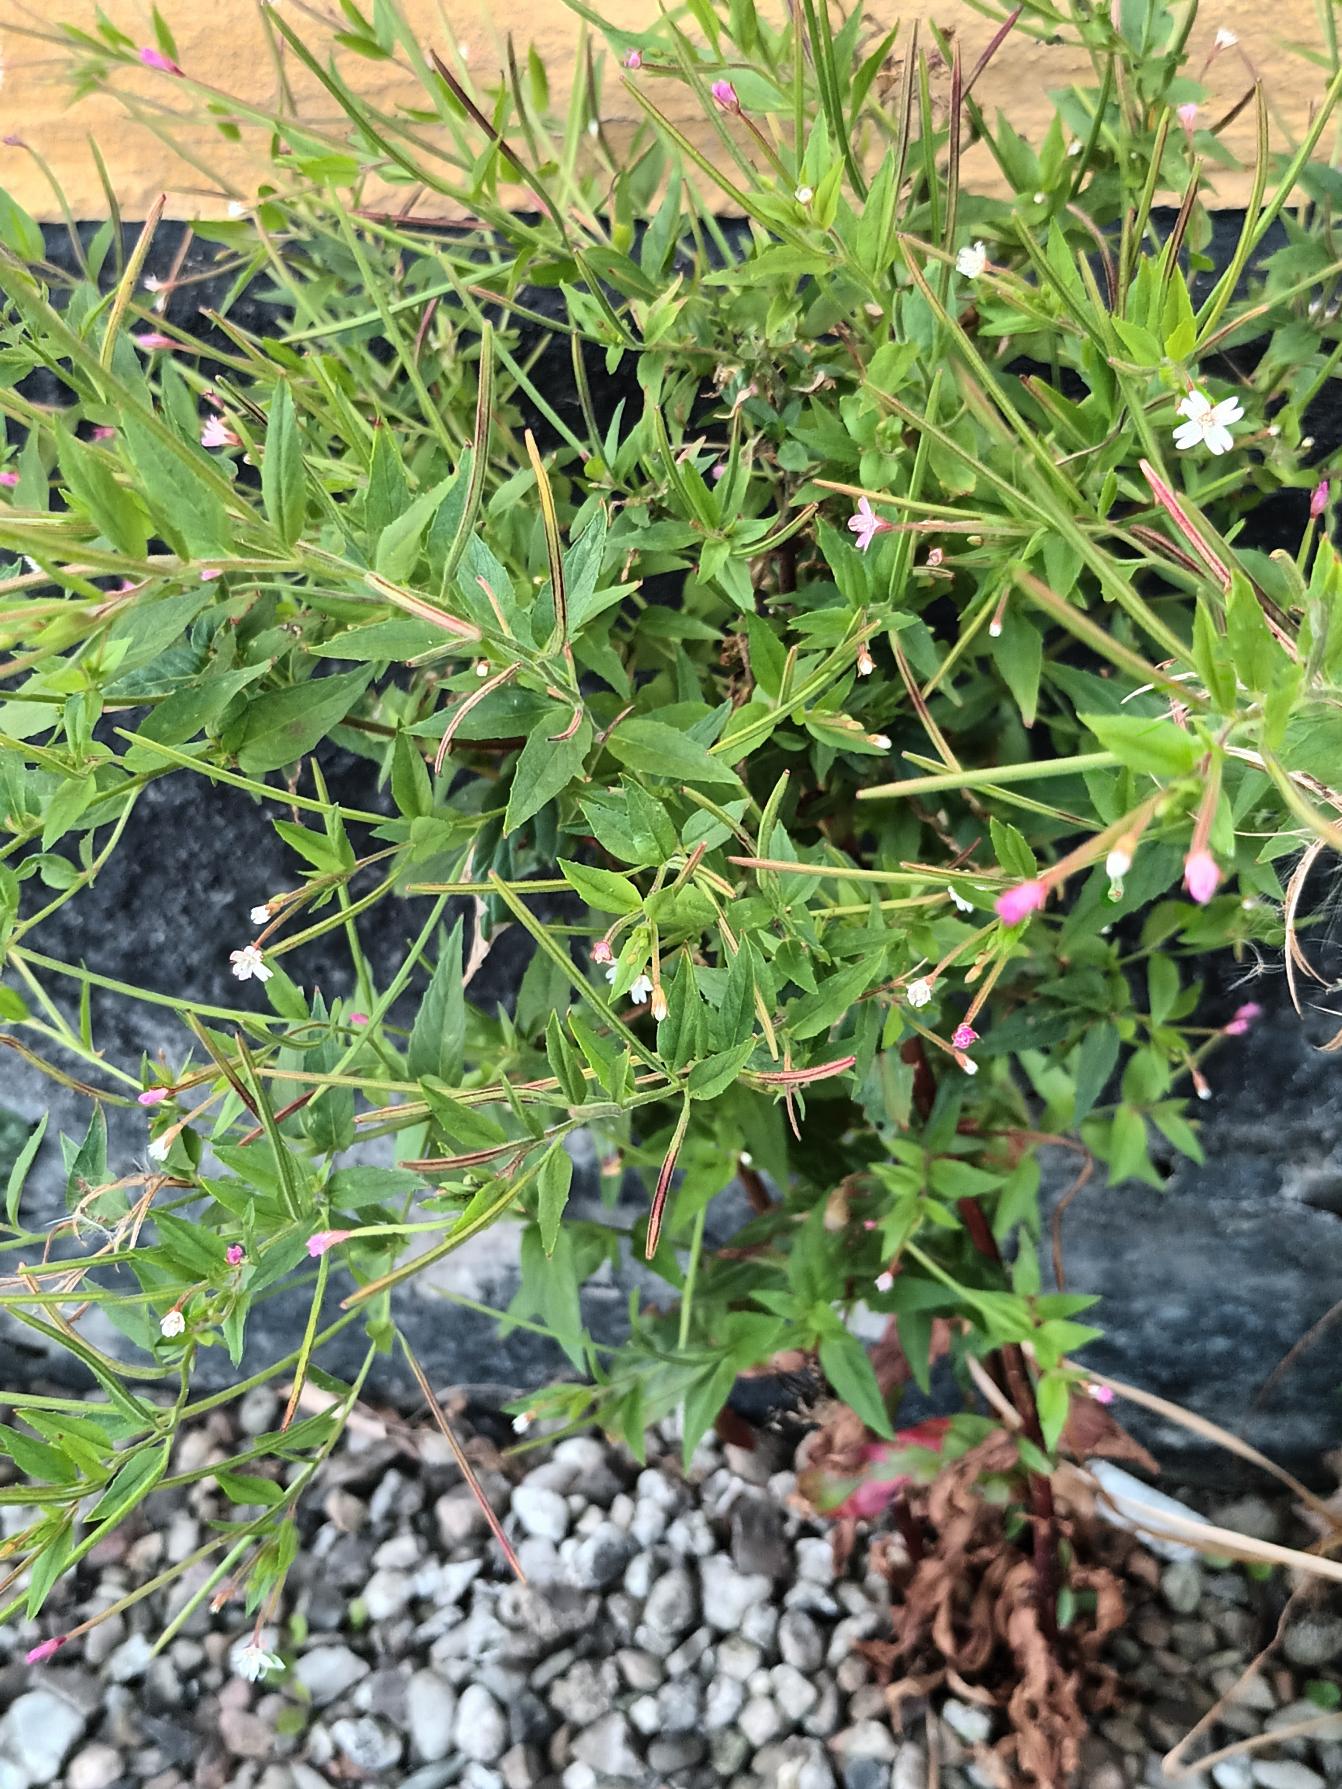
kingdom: Plantae
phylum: Tracheophyta
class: Magnoliopsida
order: Myrtales
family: Onagraceae
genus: Epilobium
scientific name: Epilobium ciliatum
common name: Hvid dueurt
